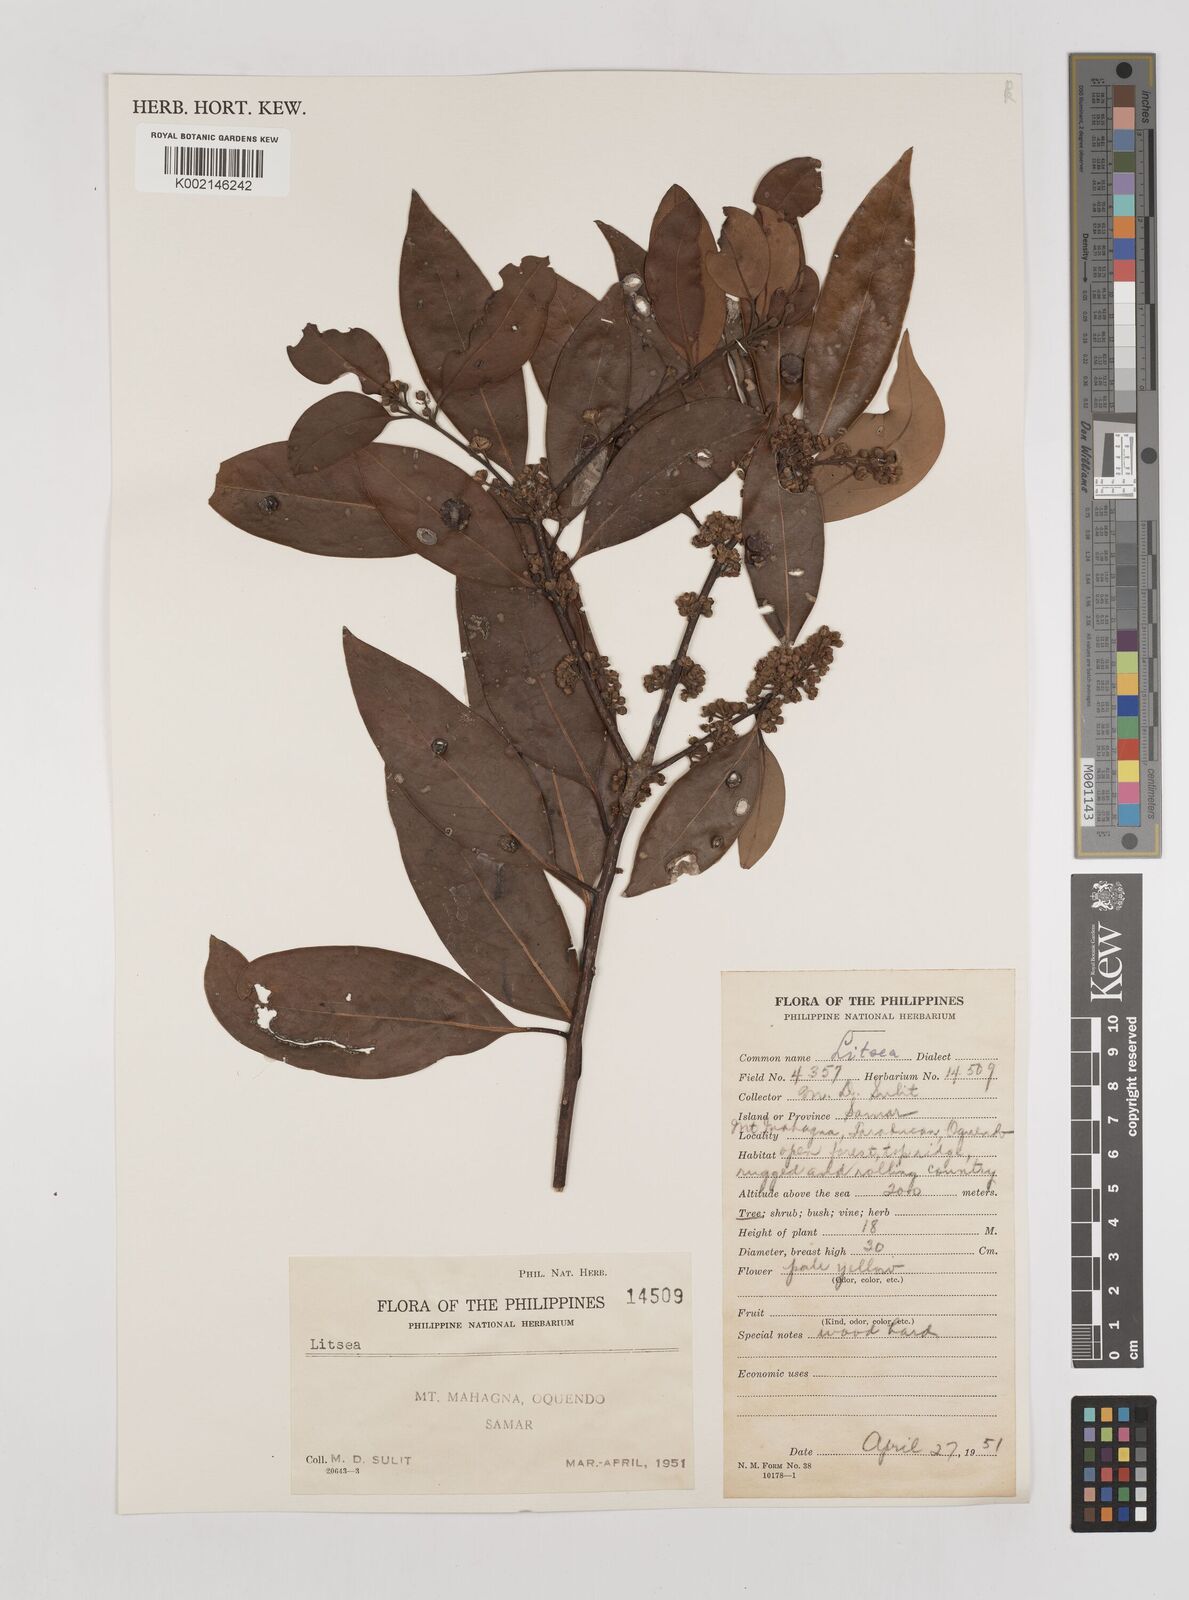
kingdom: Plantae
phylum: Tracheophyta
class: Magnoliopsida
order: Laurales
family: Lauraceae
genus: Litsea
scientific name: Litsea
